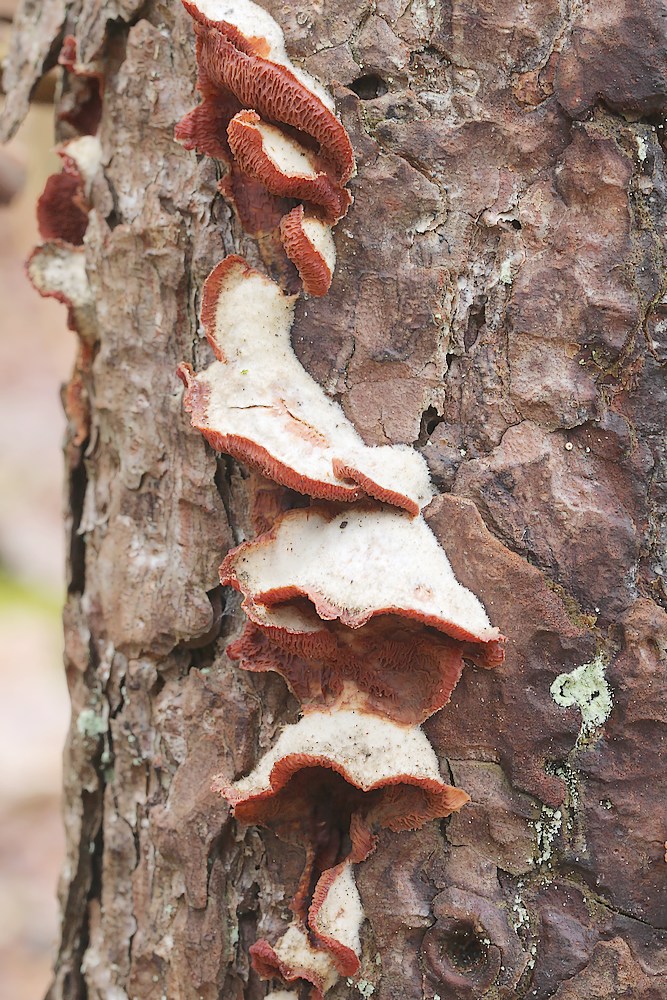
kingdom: Fungi
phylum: Basidiomycota
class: Agaricomycetes
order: Polyporales
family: Meruliaceae
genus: Phlebia
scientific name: Phlebia tremellosa
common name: bævrende åresvamp
